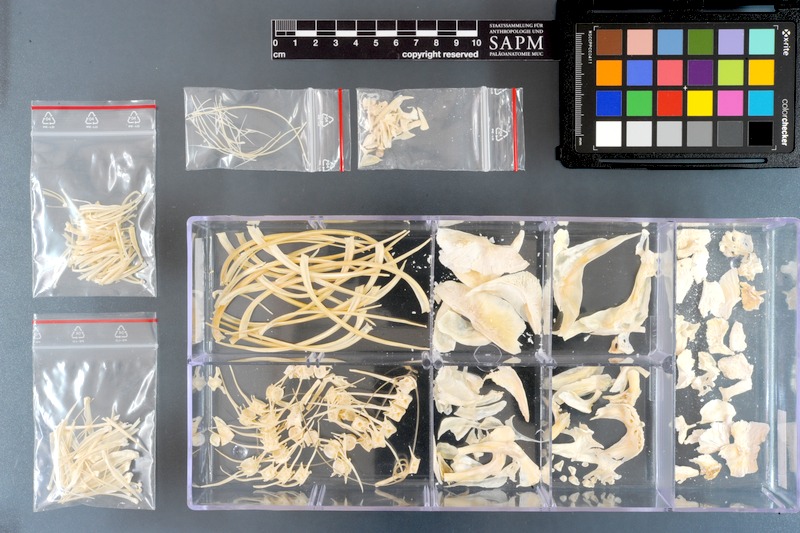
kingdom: Animalia
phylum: Chordata
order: Characiformes
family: Serrasalmidae
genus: Myleus
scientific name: Myleus pacu
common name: Pacu
